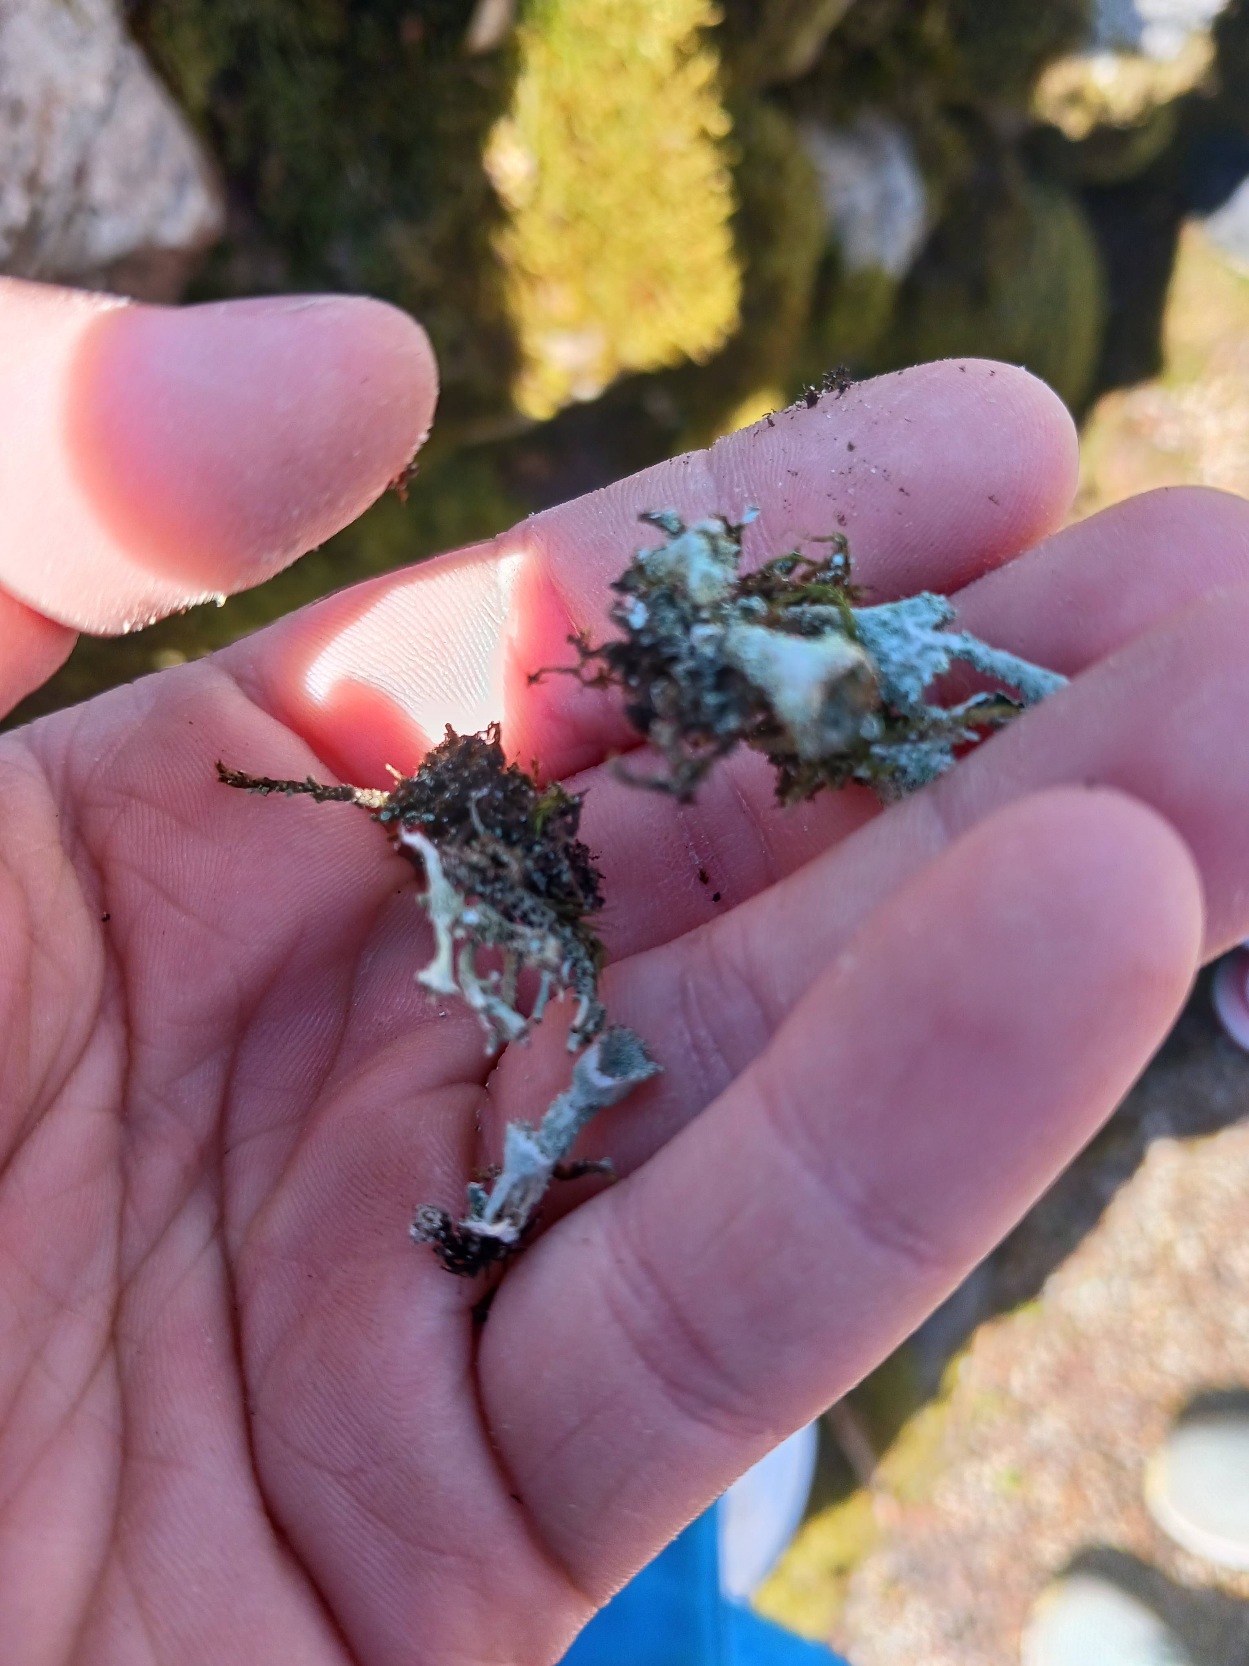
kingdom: Fungi
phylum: Ascomycota
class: Lecanoromycetes
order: Lecanorales
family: Cladoniaceae
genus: Cladonia
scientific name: Cladonia chlorophaea
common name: Brungrøn bægerlav
